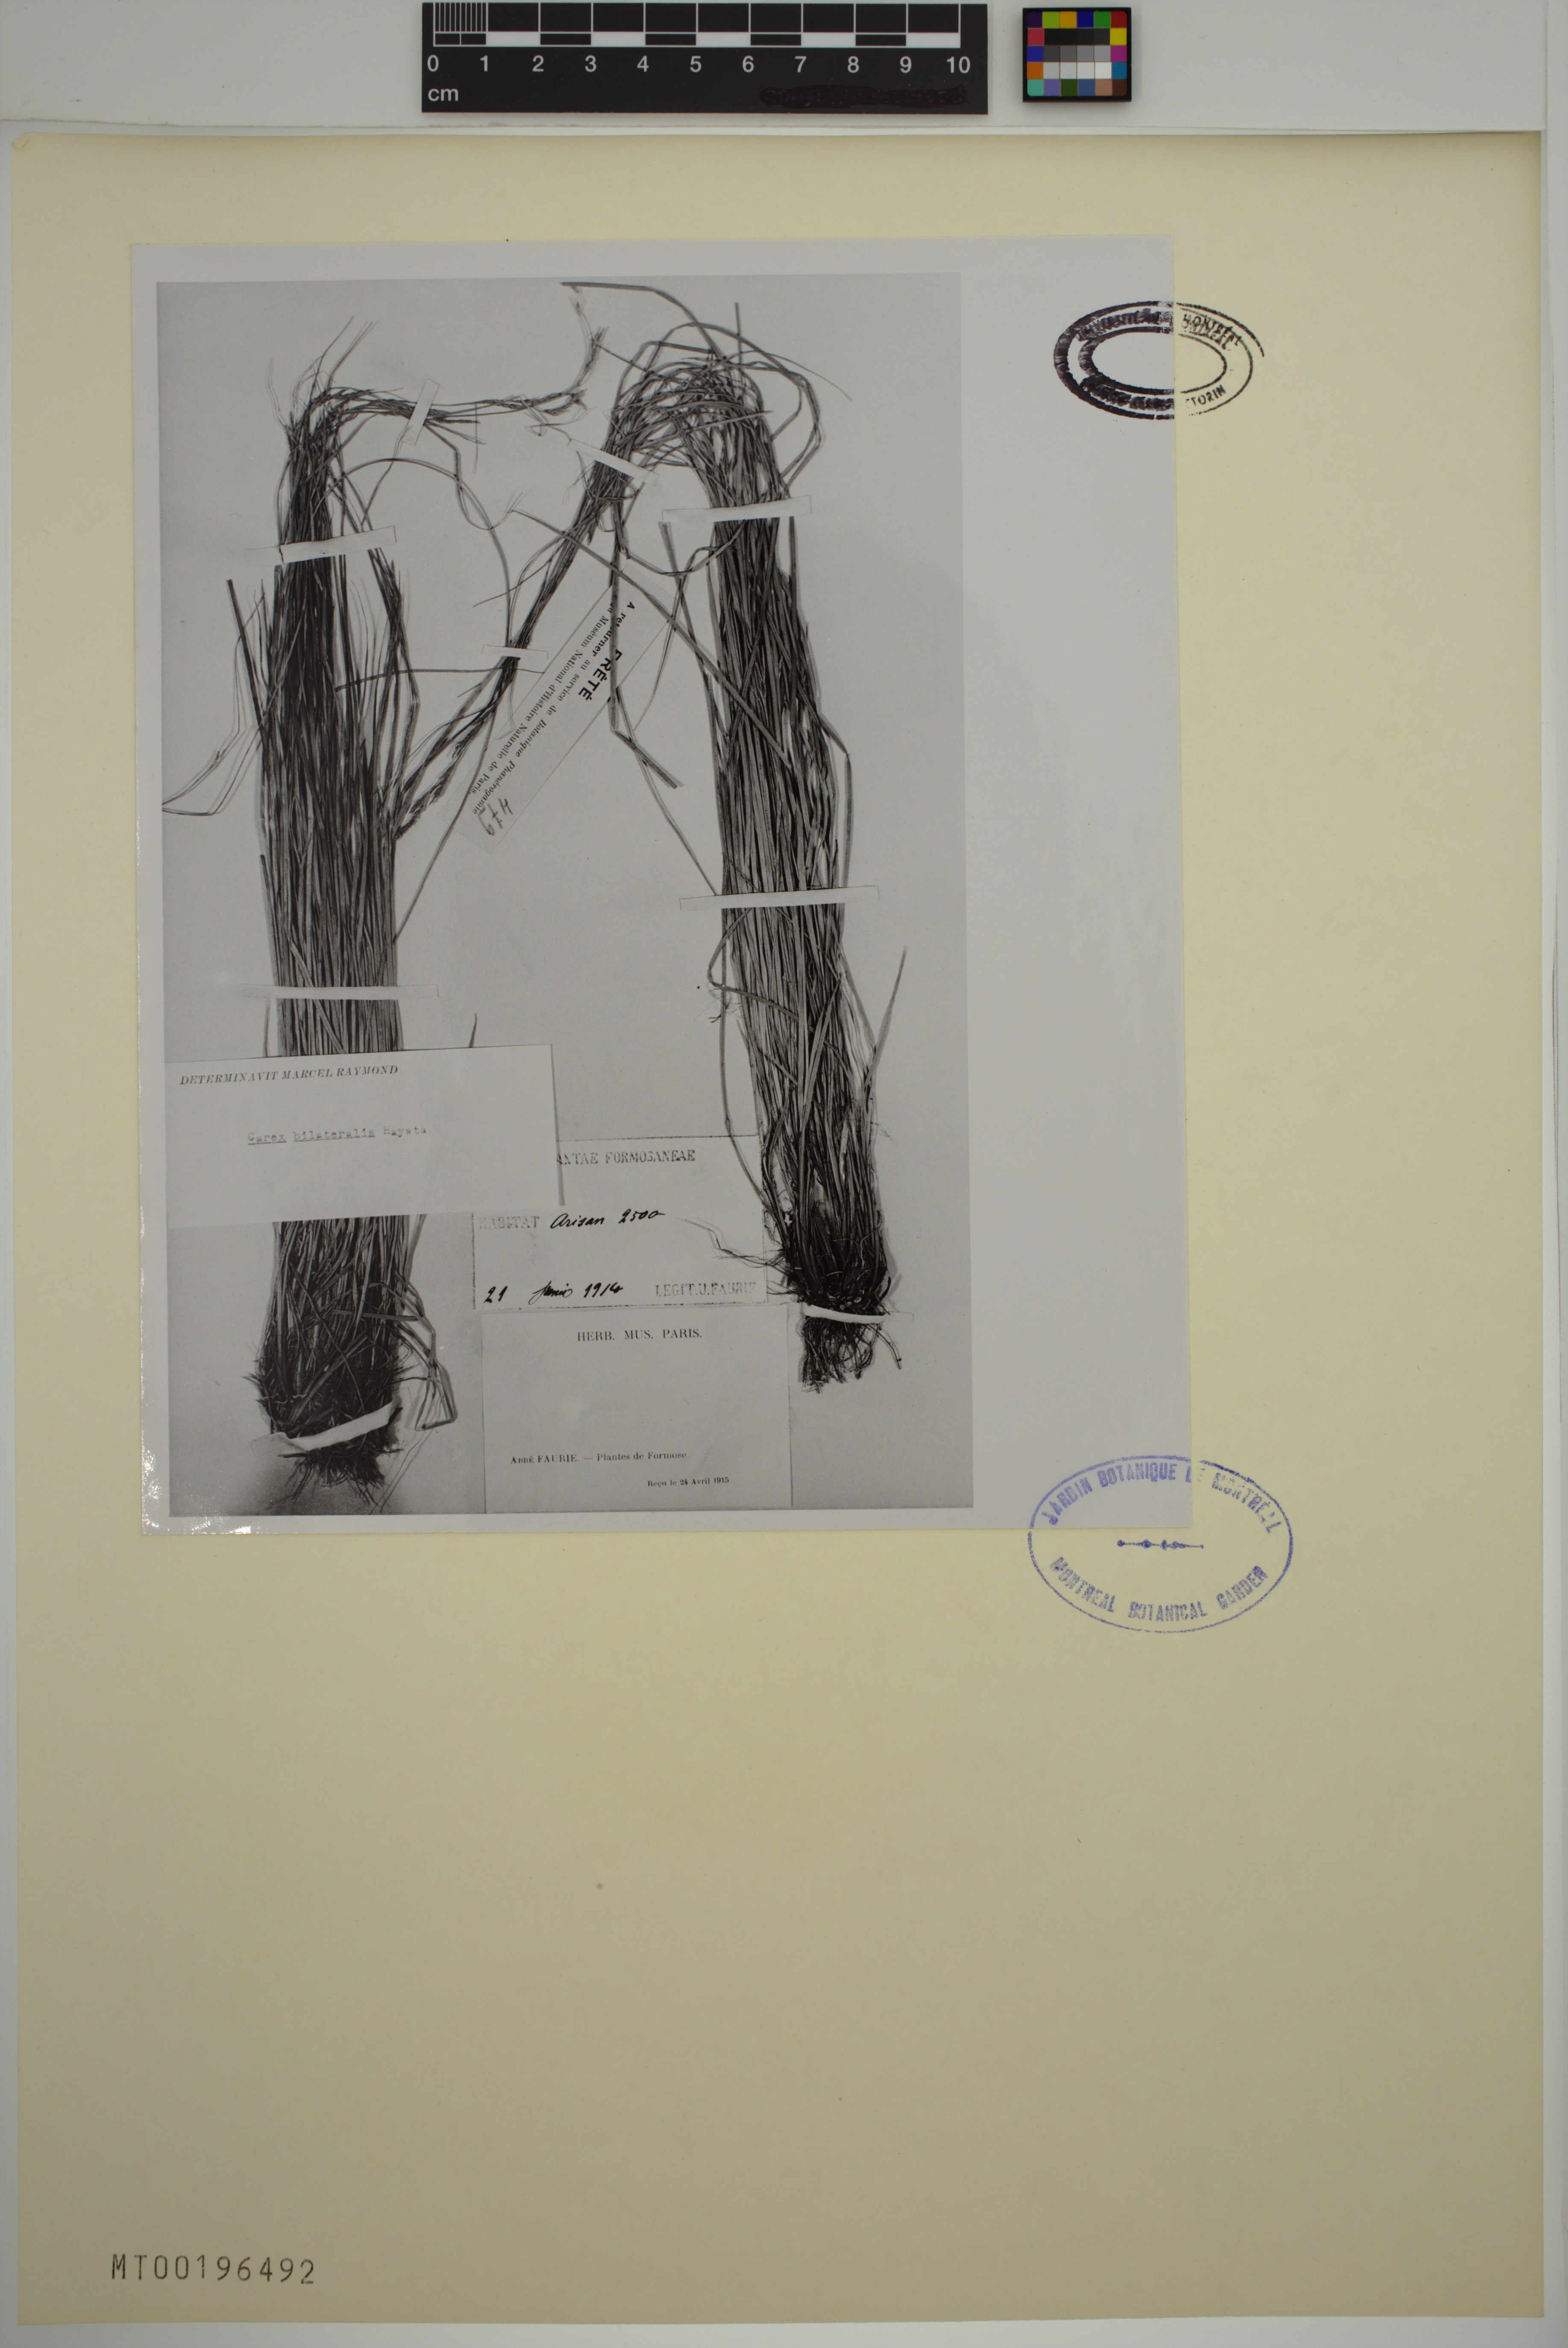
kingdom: Plantae
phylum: Tracheophyta
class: Liliopsida
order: Poales
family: Cyperaceae
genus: Carex
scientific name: Carex bilateralis
